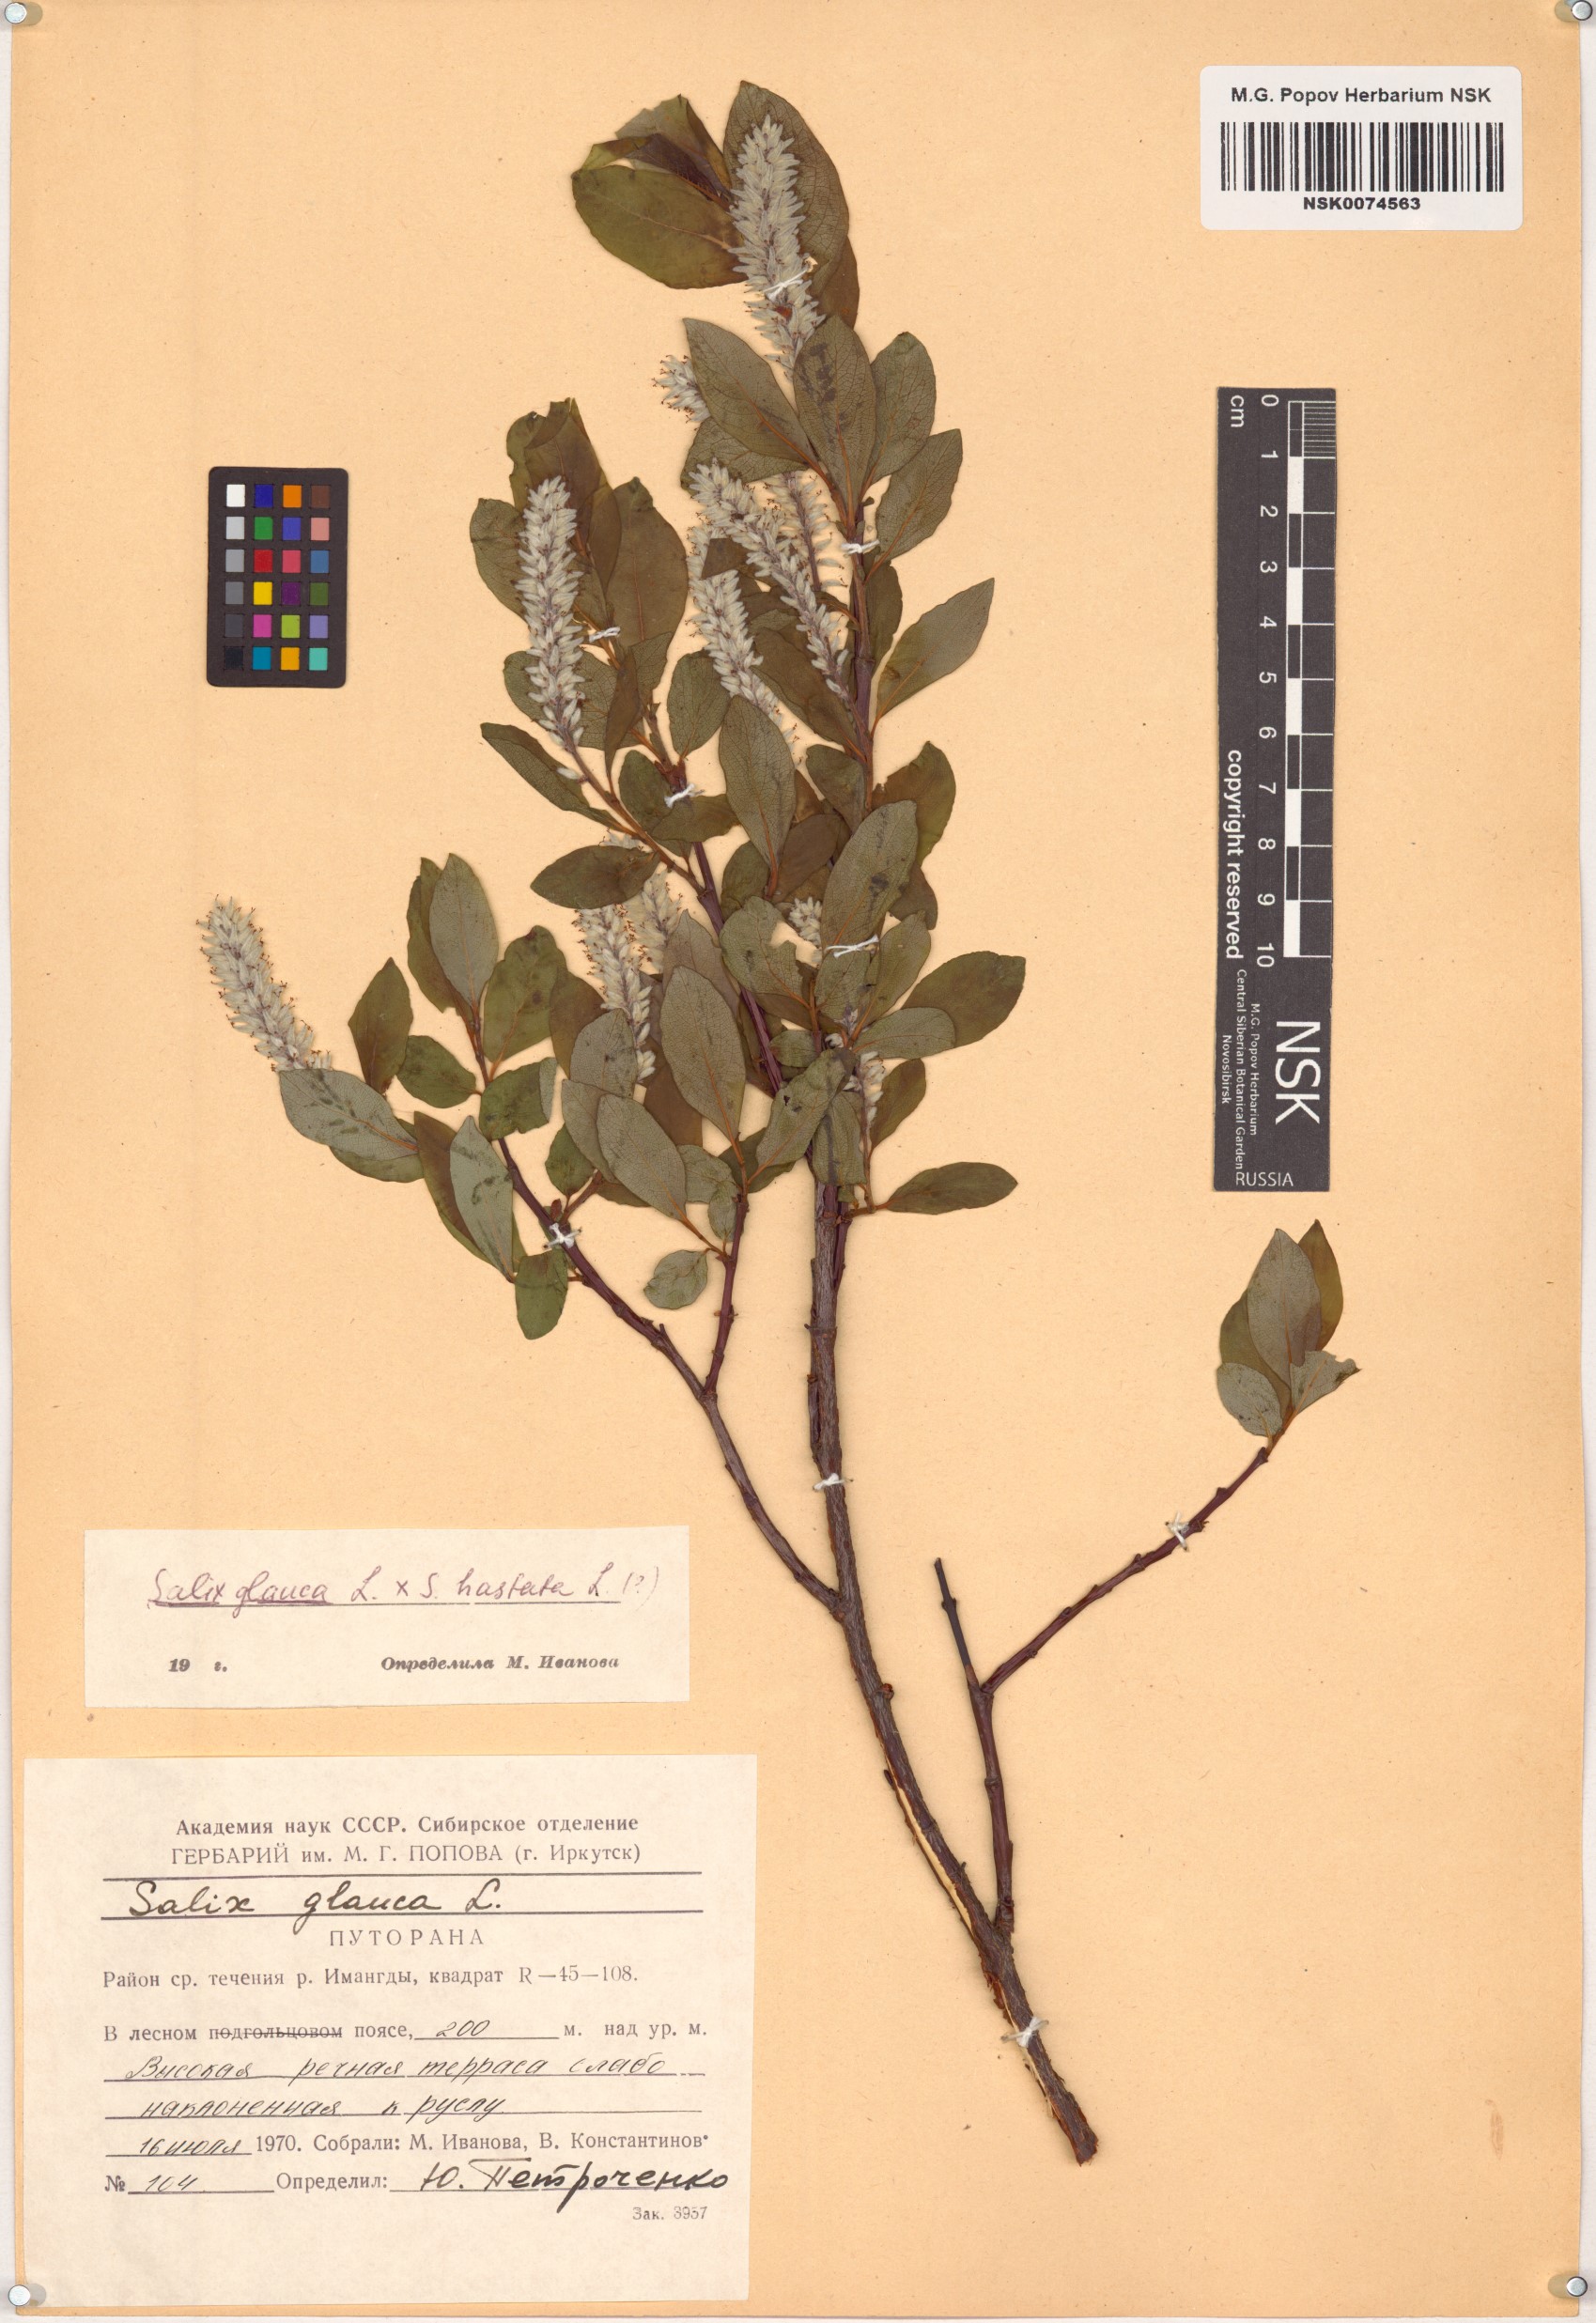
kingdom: Plantae
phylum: Tracheophyta
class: Magnoliopsida
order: Malpighiales
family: Salicaceae
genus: Salix
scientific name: Salix glauca
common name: Glaucous willow
